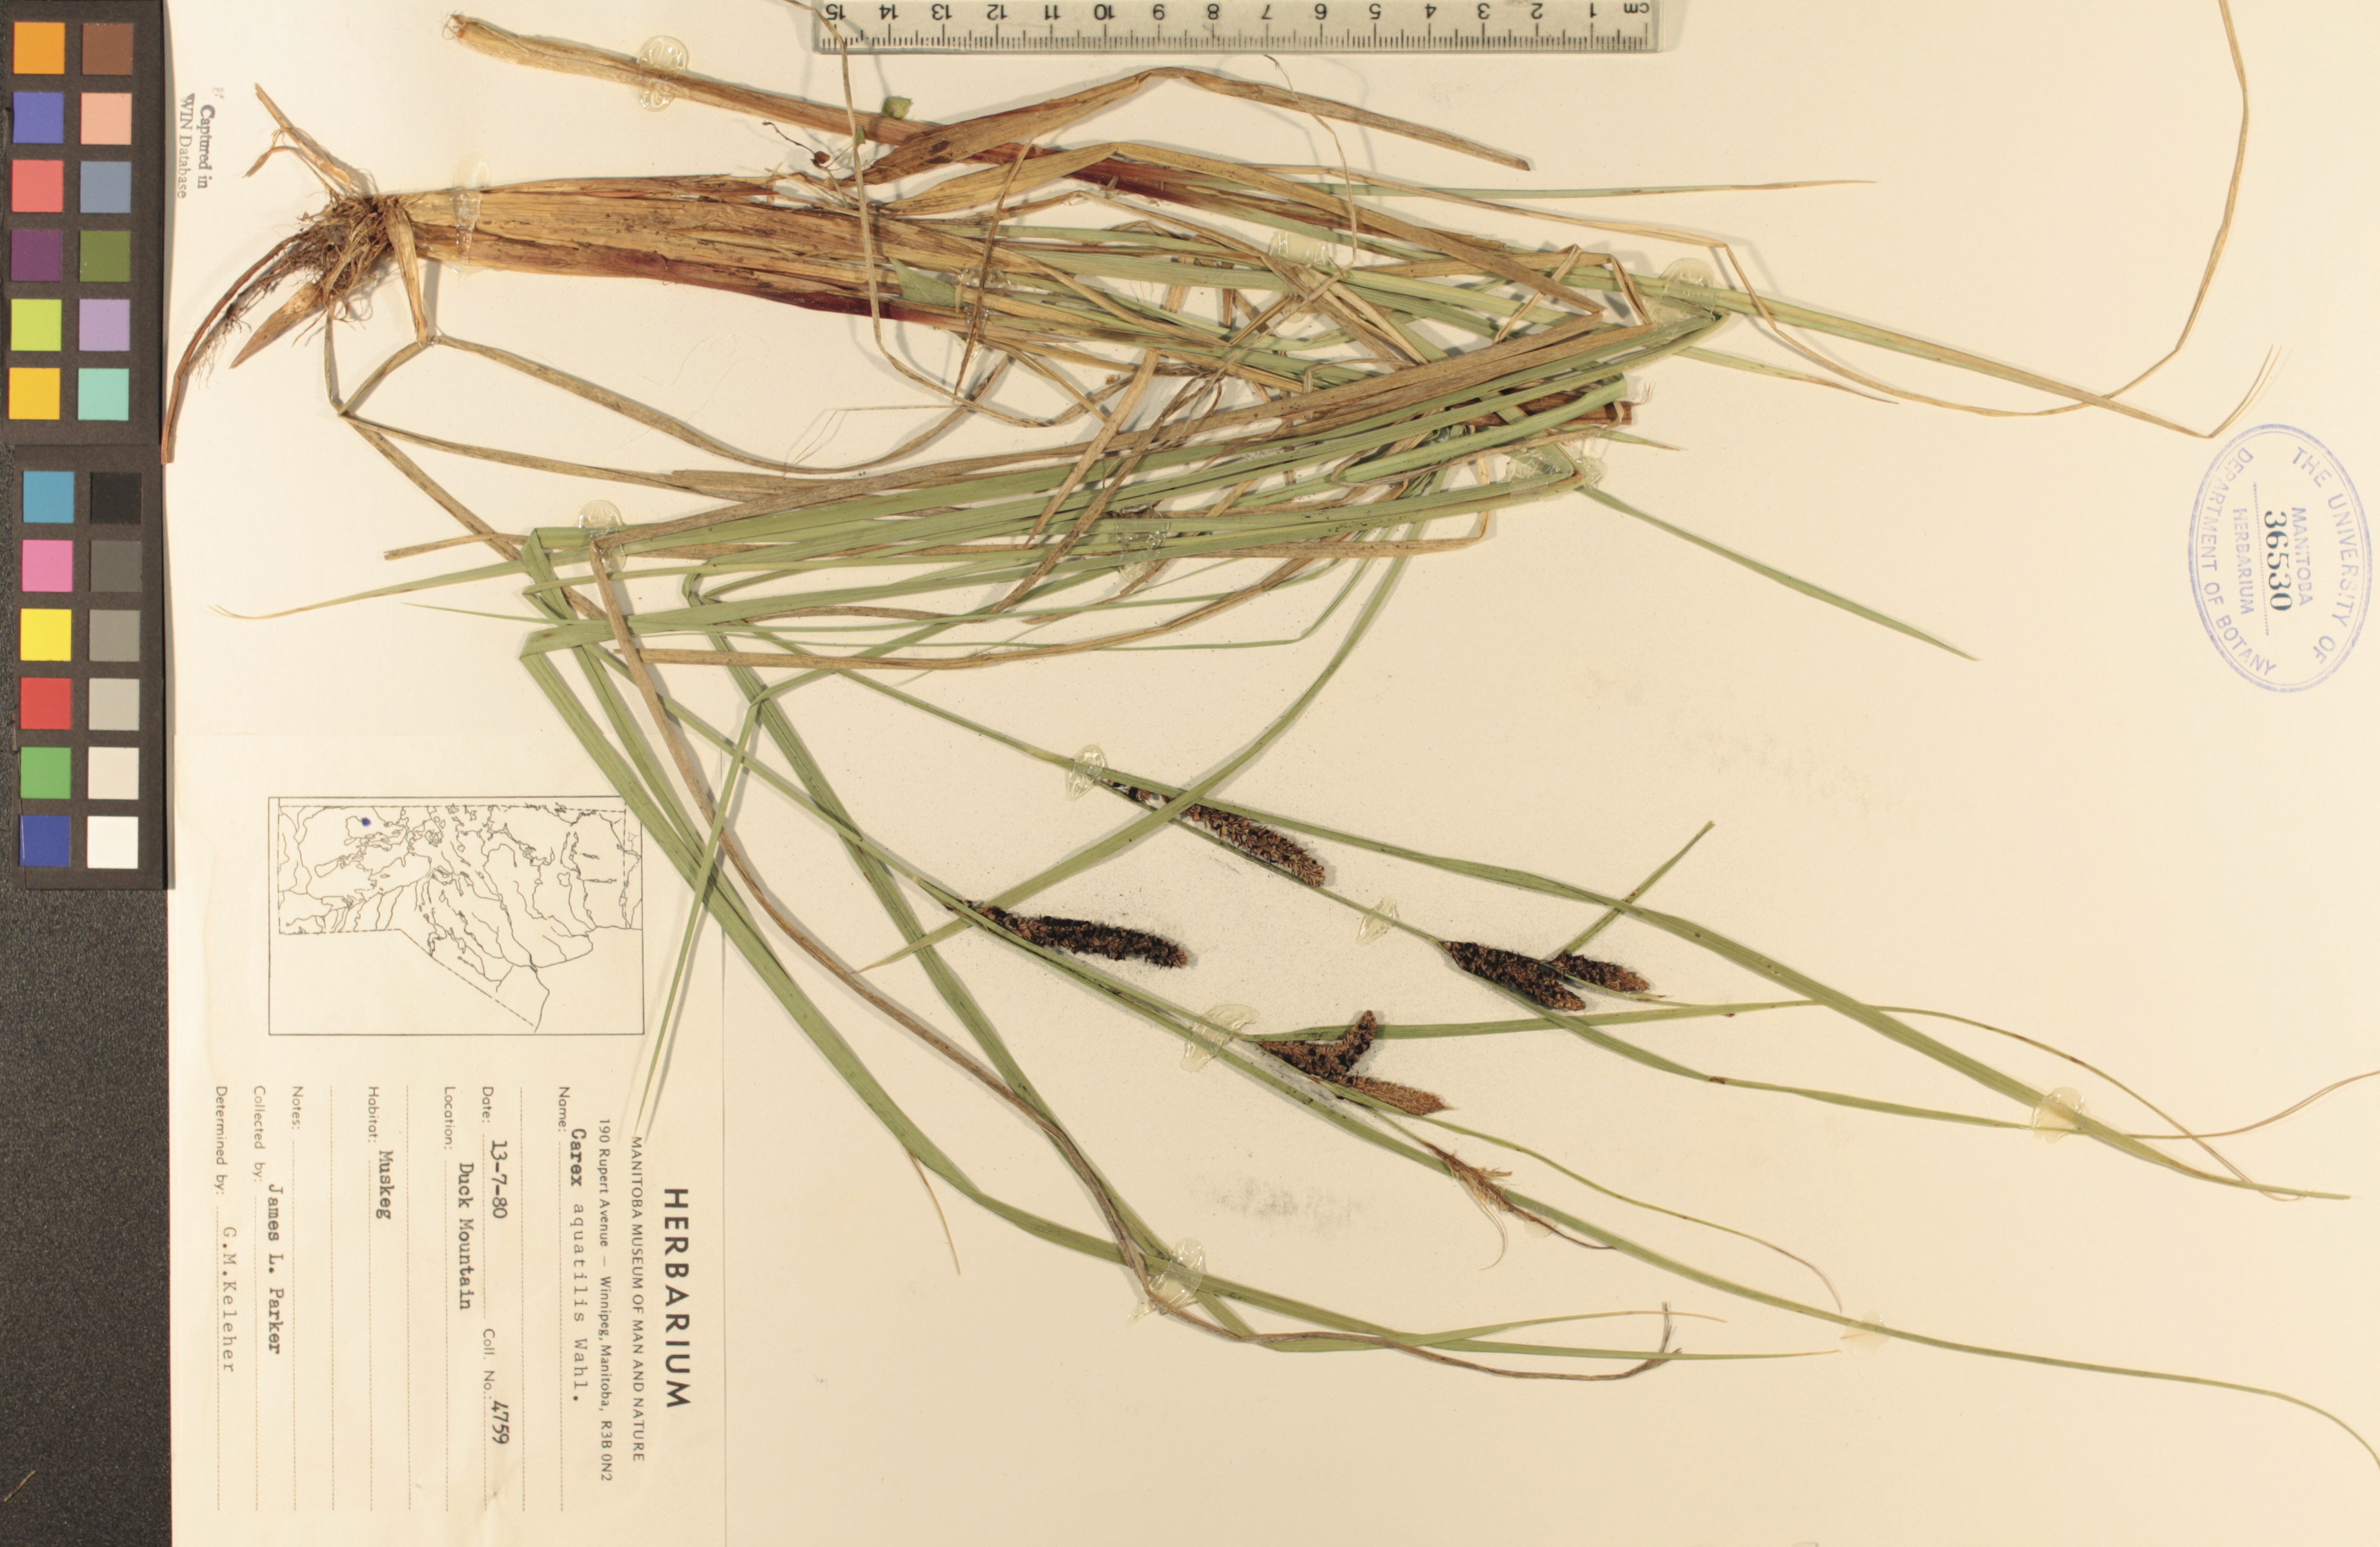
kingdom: Plantae
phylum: Tracheophyta
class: Liliopsida
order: Poales
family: Cyperaceae
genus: Carex
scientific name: Carex aquatilis
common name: Water sedge
